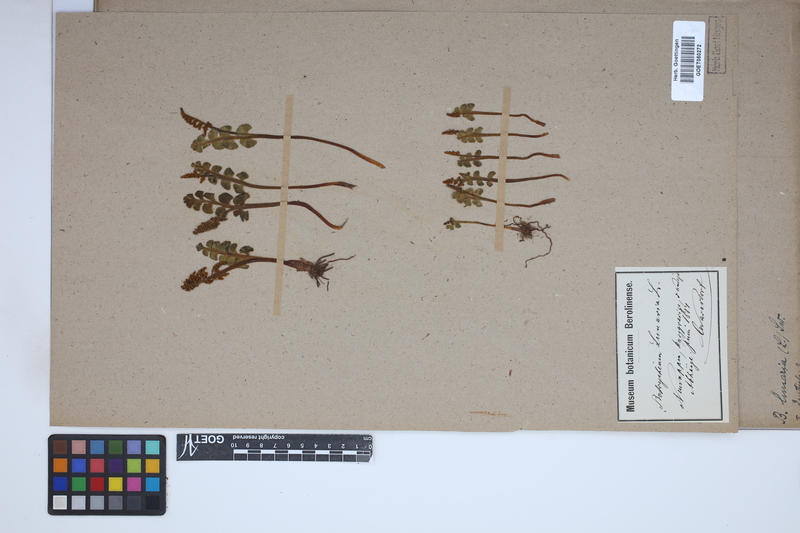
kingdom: Plantae
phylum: Tracheophyta
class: Polypodiopsida
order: Ophioglossales
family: Ophioglossaceae
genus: Botrychium
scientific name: Botrychium lunaria
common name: Moonwort
